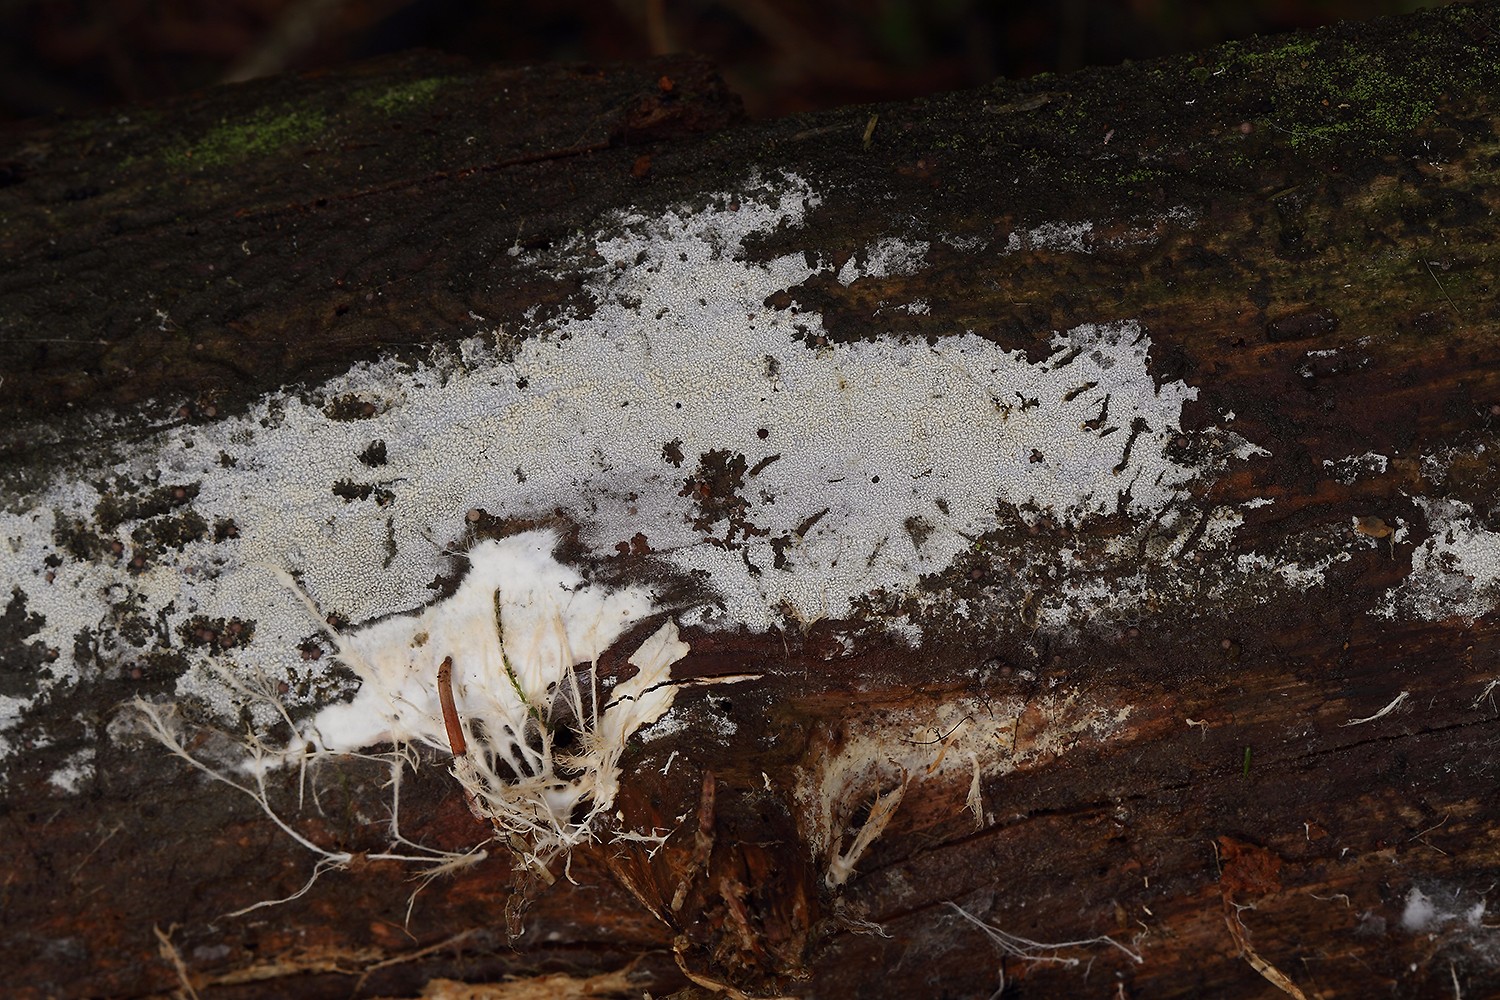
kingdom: Fungi
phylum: Basidiomycota
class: Agaricomycetes
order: Hymenochaetales
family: Schizoporaceae
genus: Xylodon
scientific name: Xylodon brevisetus
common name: tætvortet tandsvamp
